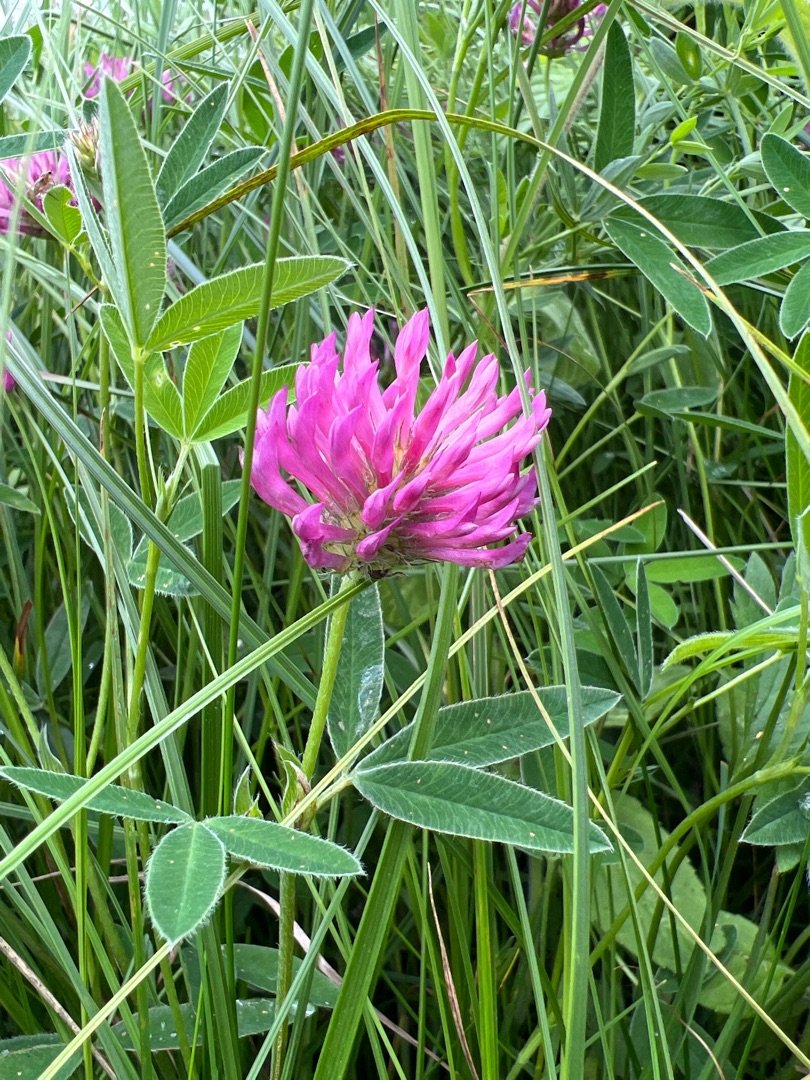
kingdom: Plantae
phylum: Tracheophyta
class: Magnoliopsida
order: Fabales
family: Fabaceae
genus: Trifolium
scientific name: Trifolium medium
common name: Bugtet kløver
